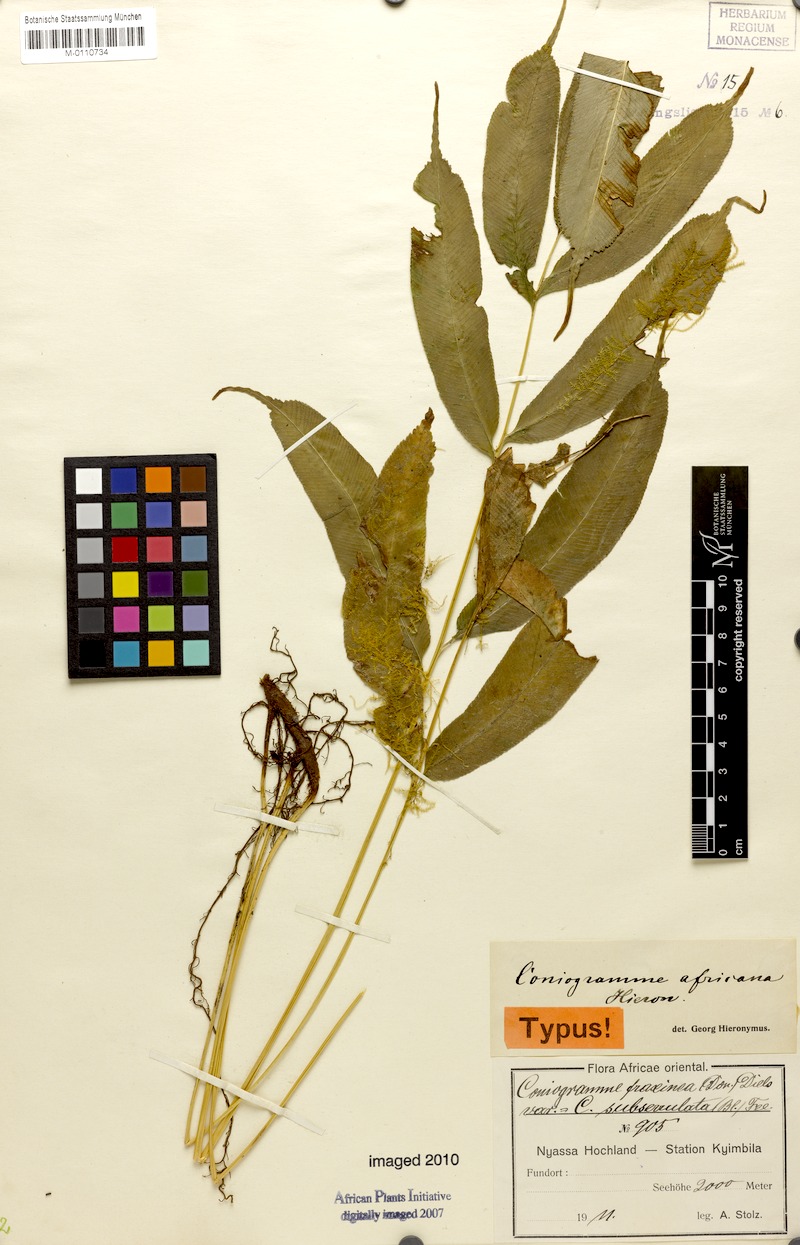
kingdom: Plantae
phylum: Tracheophyta
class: Polypodiopsida
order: Polypodiales
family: Pteridaceae
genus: Coniogramme
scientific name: Coniogramme fraxinea
